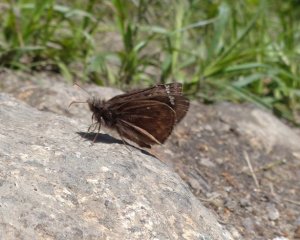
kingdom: Animalia
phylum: Arthropoda
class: Insecta
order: Lepidoptera
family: Hesperiidae
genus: Gesta
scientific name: Gesta
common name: Juvenal's Duskywing
